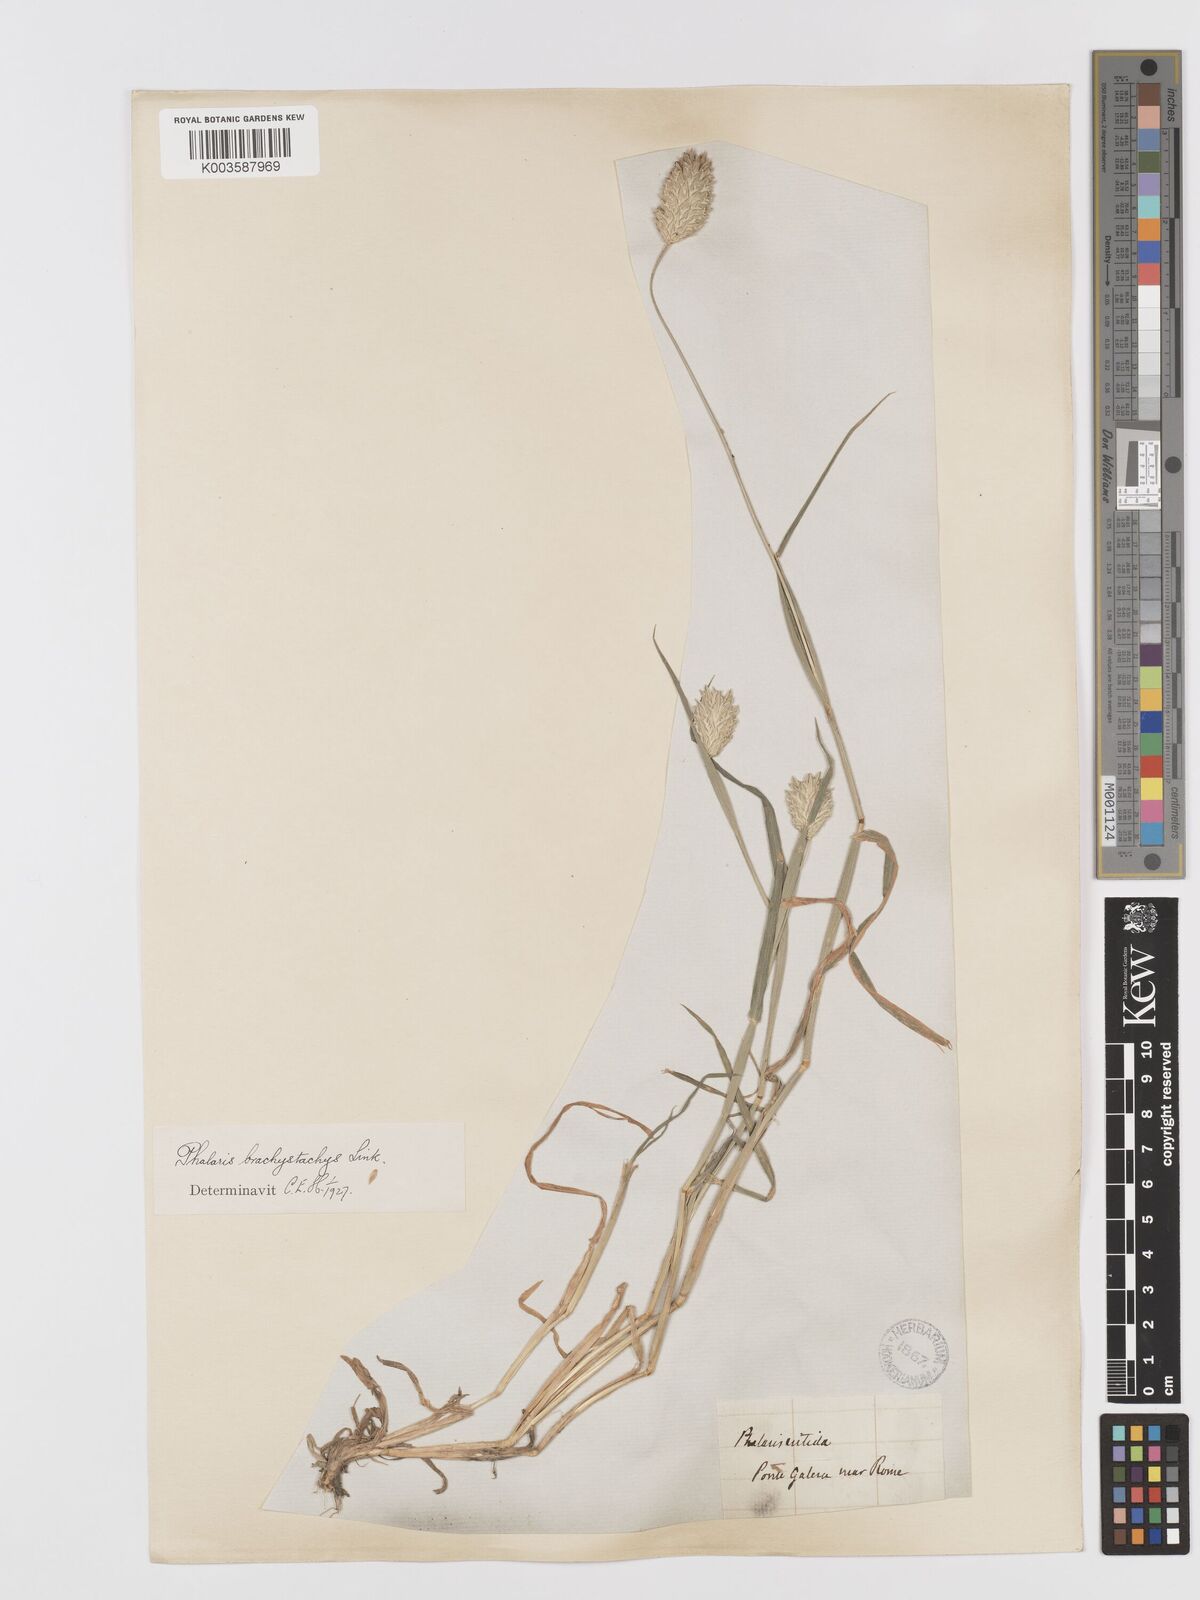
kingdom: Plantae
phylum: Tracheophyta
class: Liliopsida
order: Poales
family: Poaceae
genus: Phalaris
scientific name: Phalaris brachystachys
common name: Confused canary-grass
